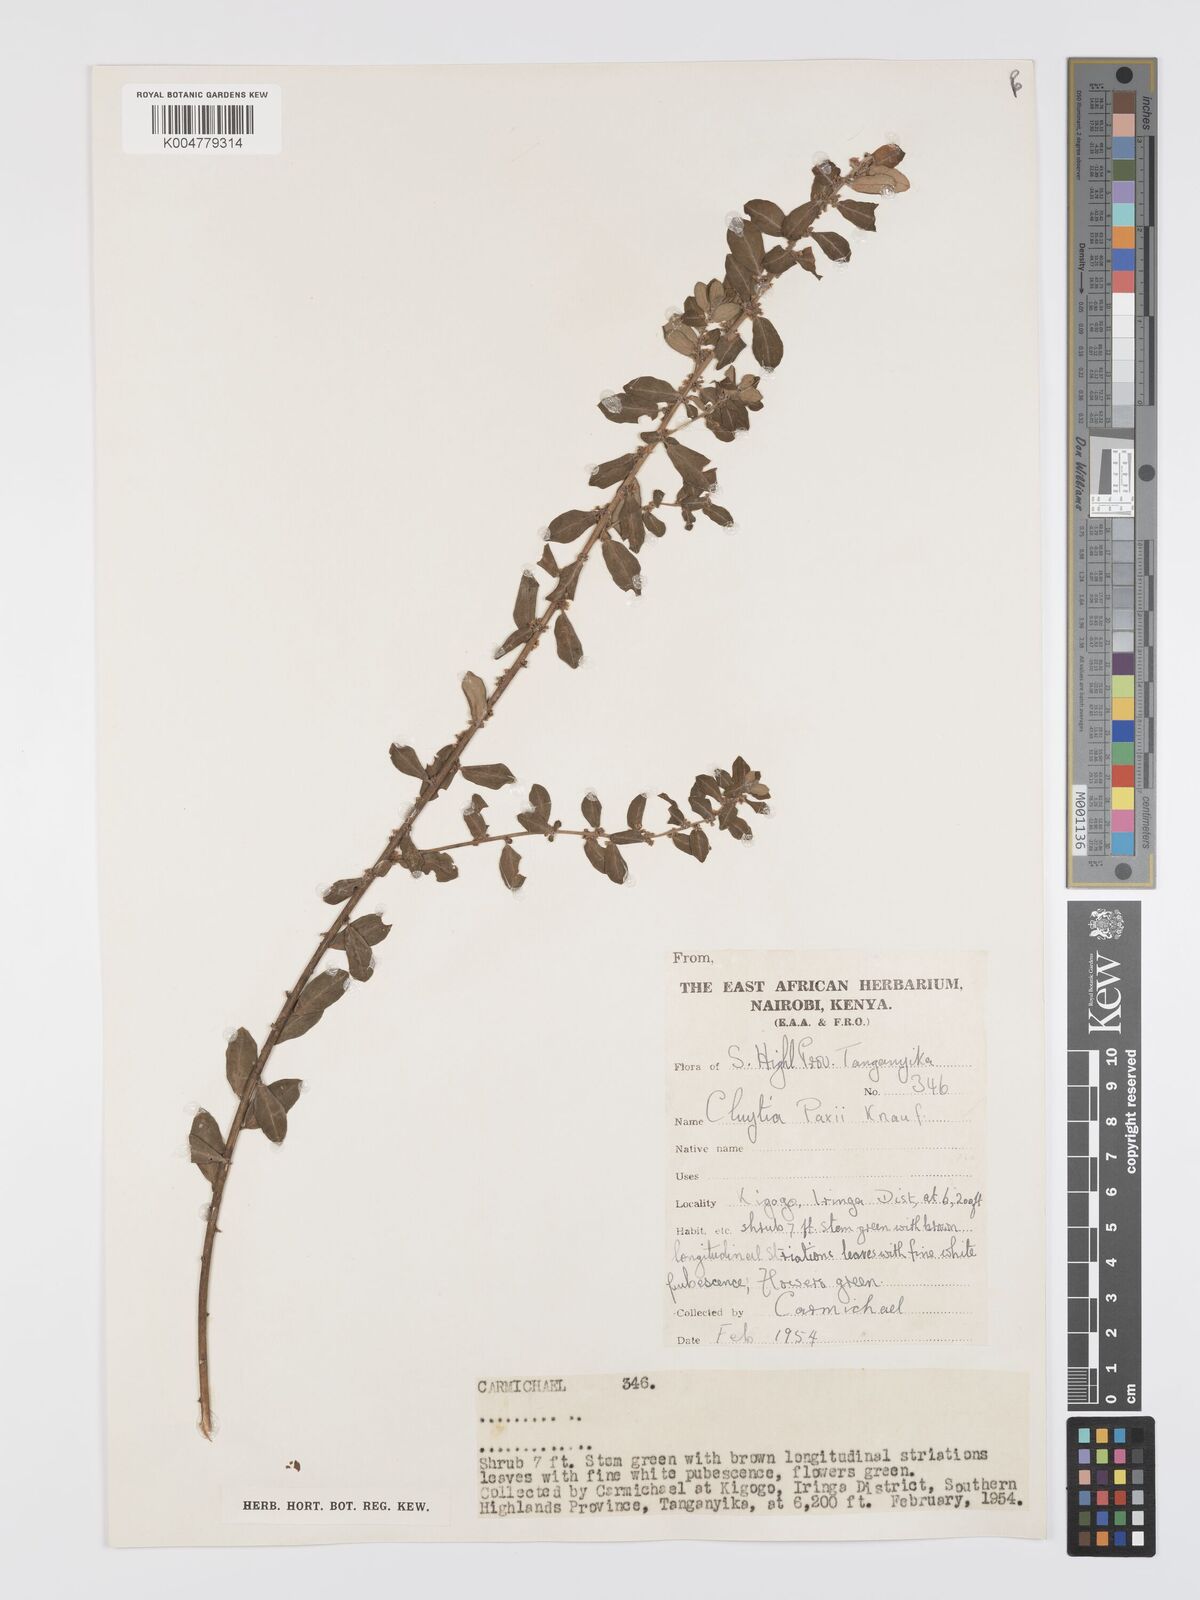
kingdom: Plantae
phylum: Tracheophyta
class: Magnoliopsida
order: Malpighiales
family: Peraceae
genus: Clutia
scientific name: Clutia paxii
